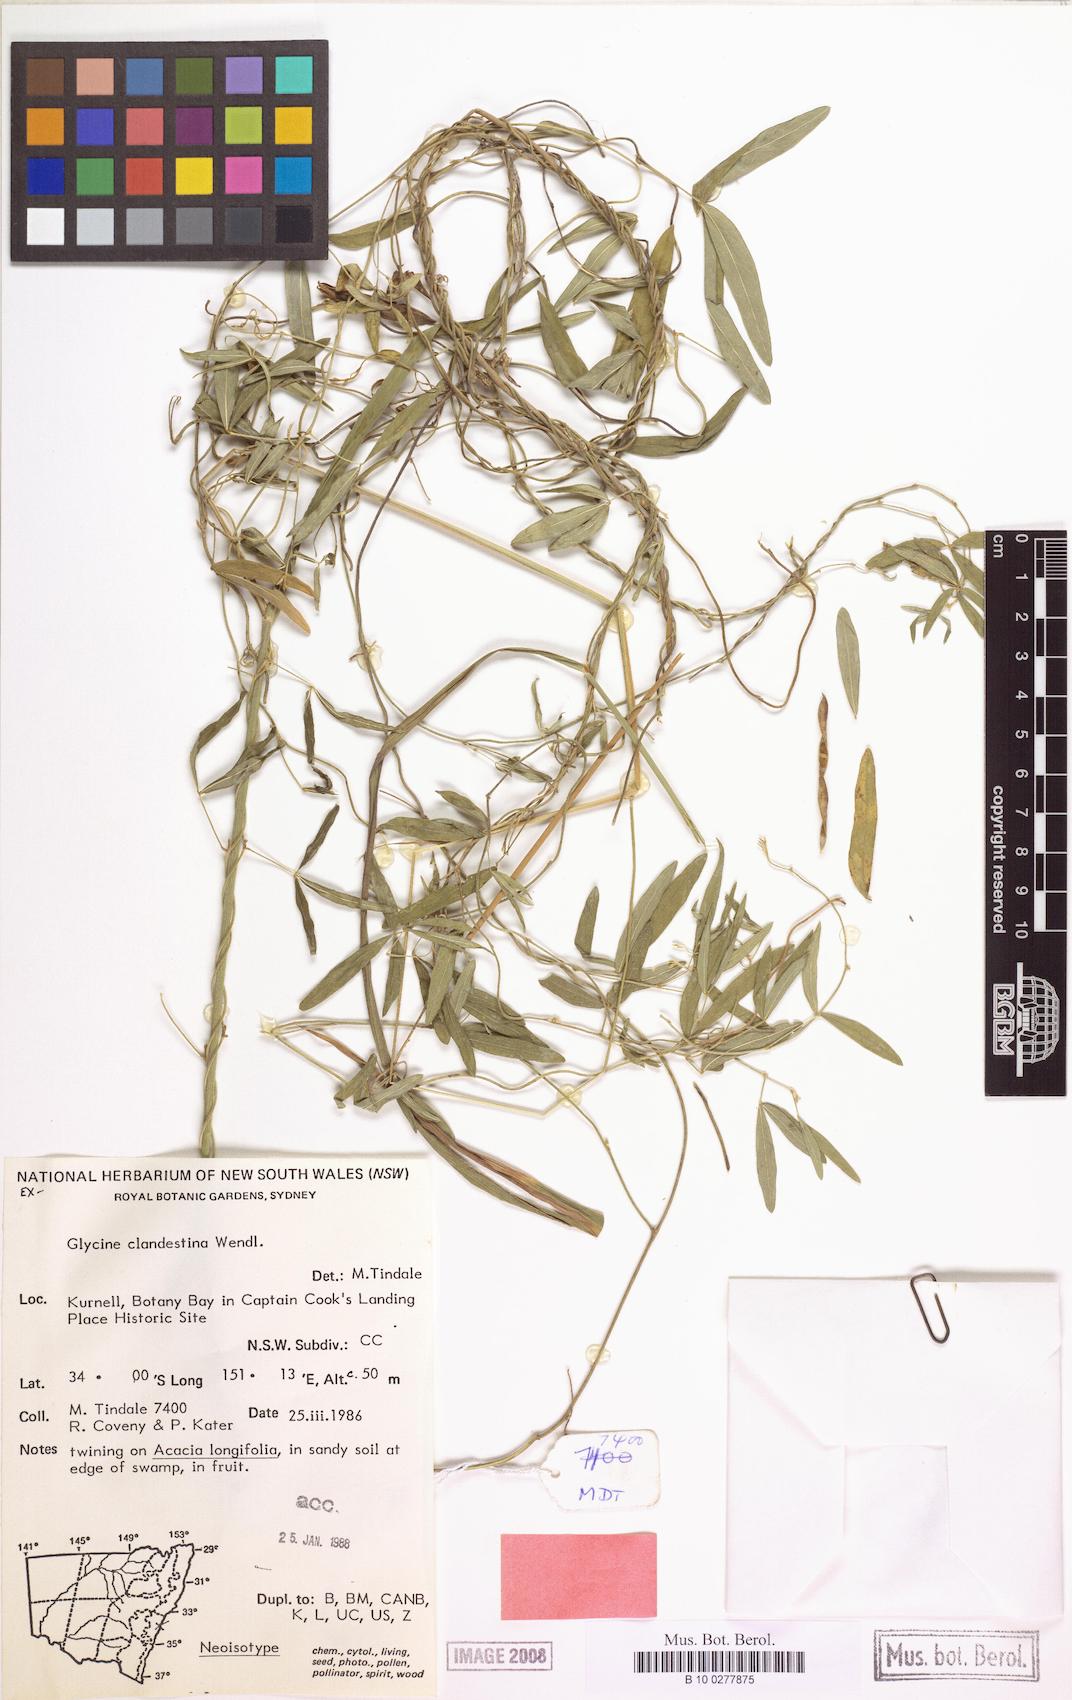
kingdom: Plantae
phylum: Tracheophyta
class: Magnoliopsida
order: Fabales
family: Fabaceae
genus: Glycine
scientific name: Glycine clandestina
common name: Twining glycine
